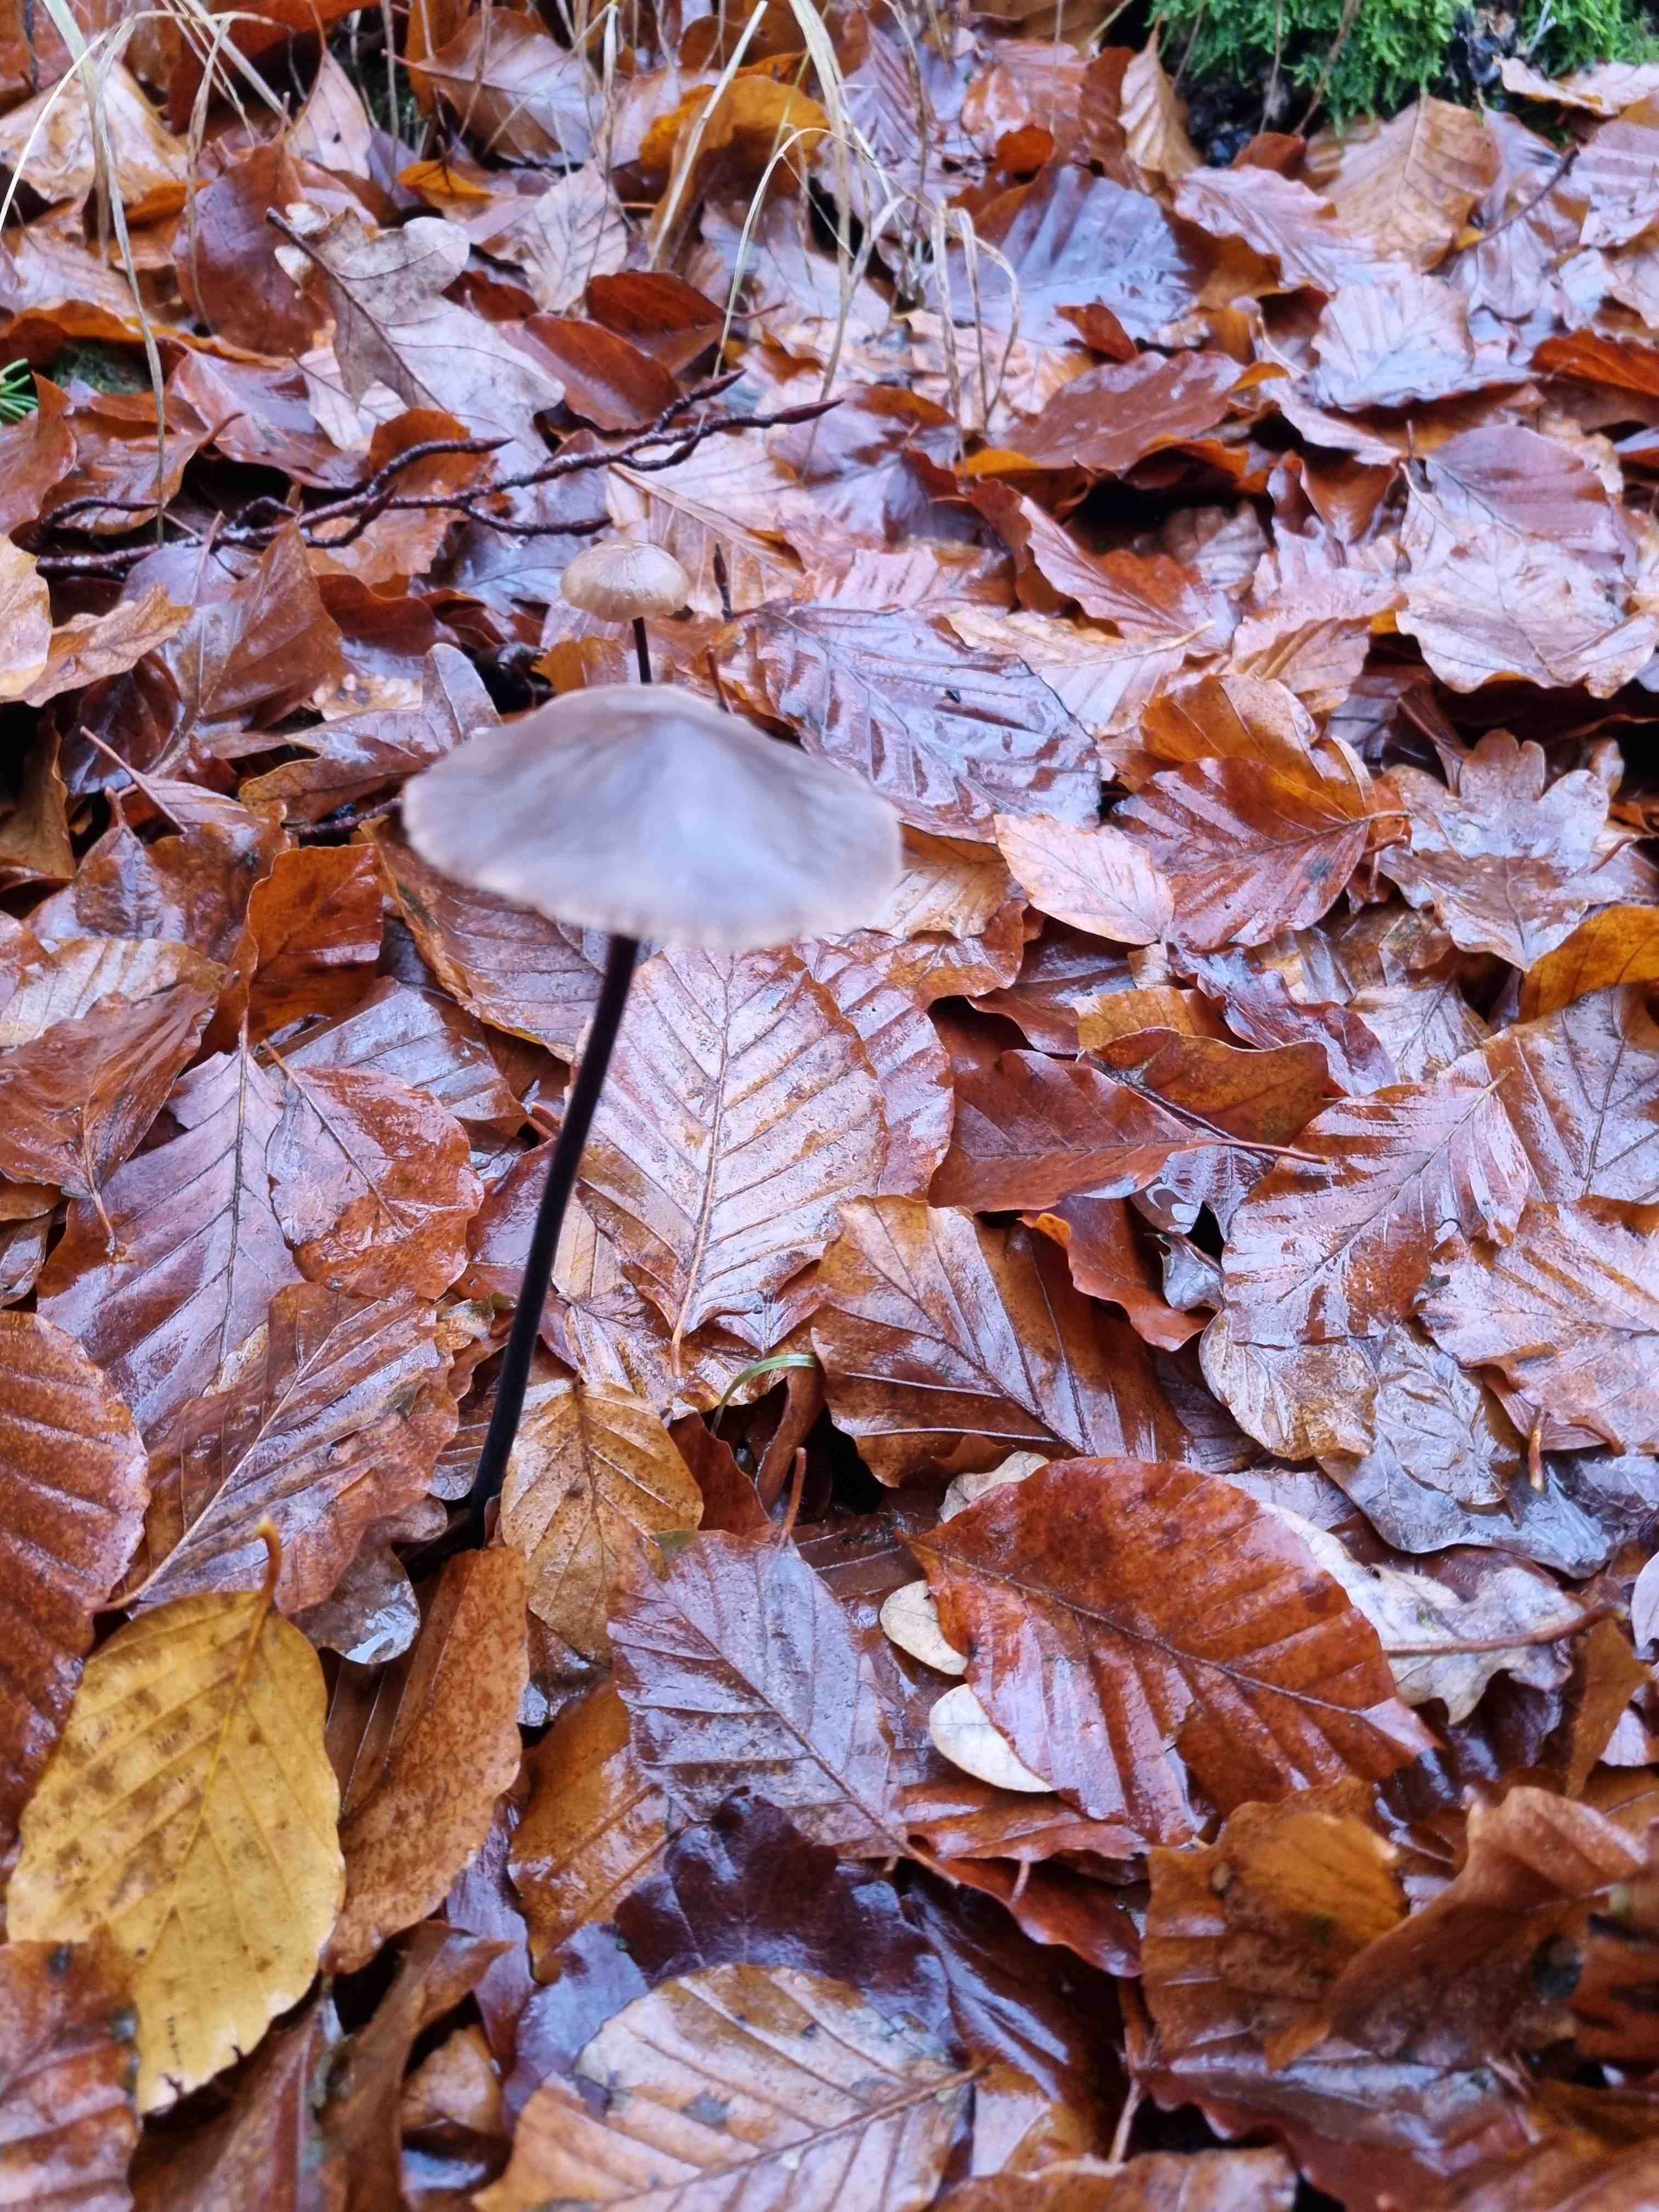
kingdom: Fungi
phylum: Basidiomycota
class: Agaricomycetes
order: Agaricales
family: Omphalotaceae
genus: Mycetinis
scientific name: Mycetinis alliaceus
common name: stor løghat
